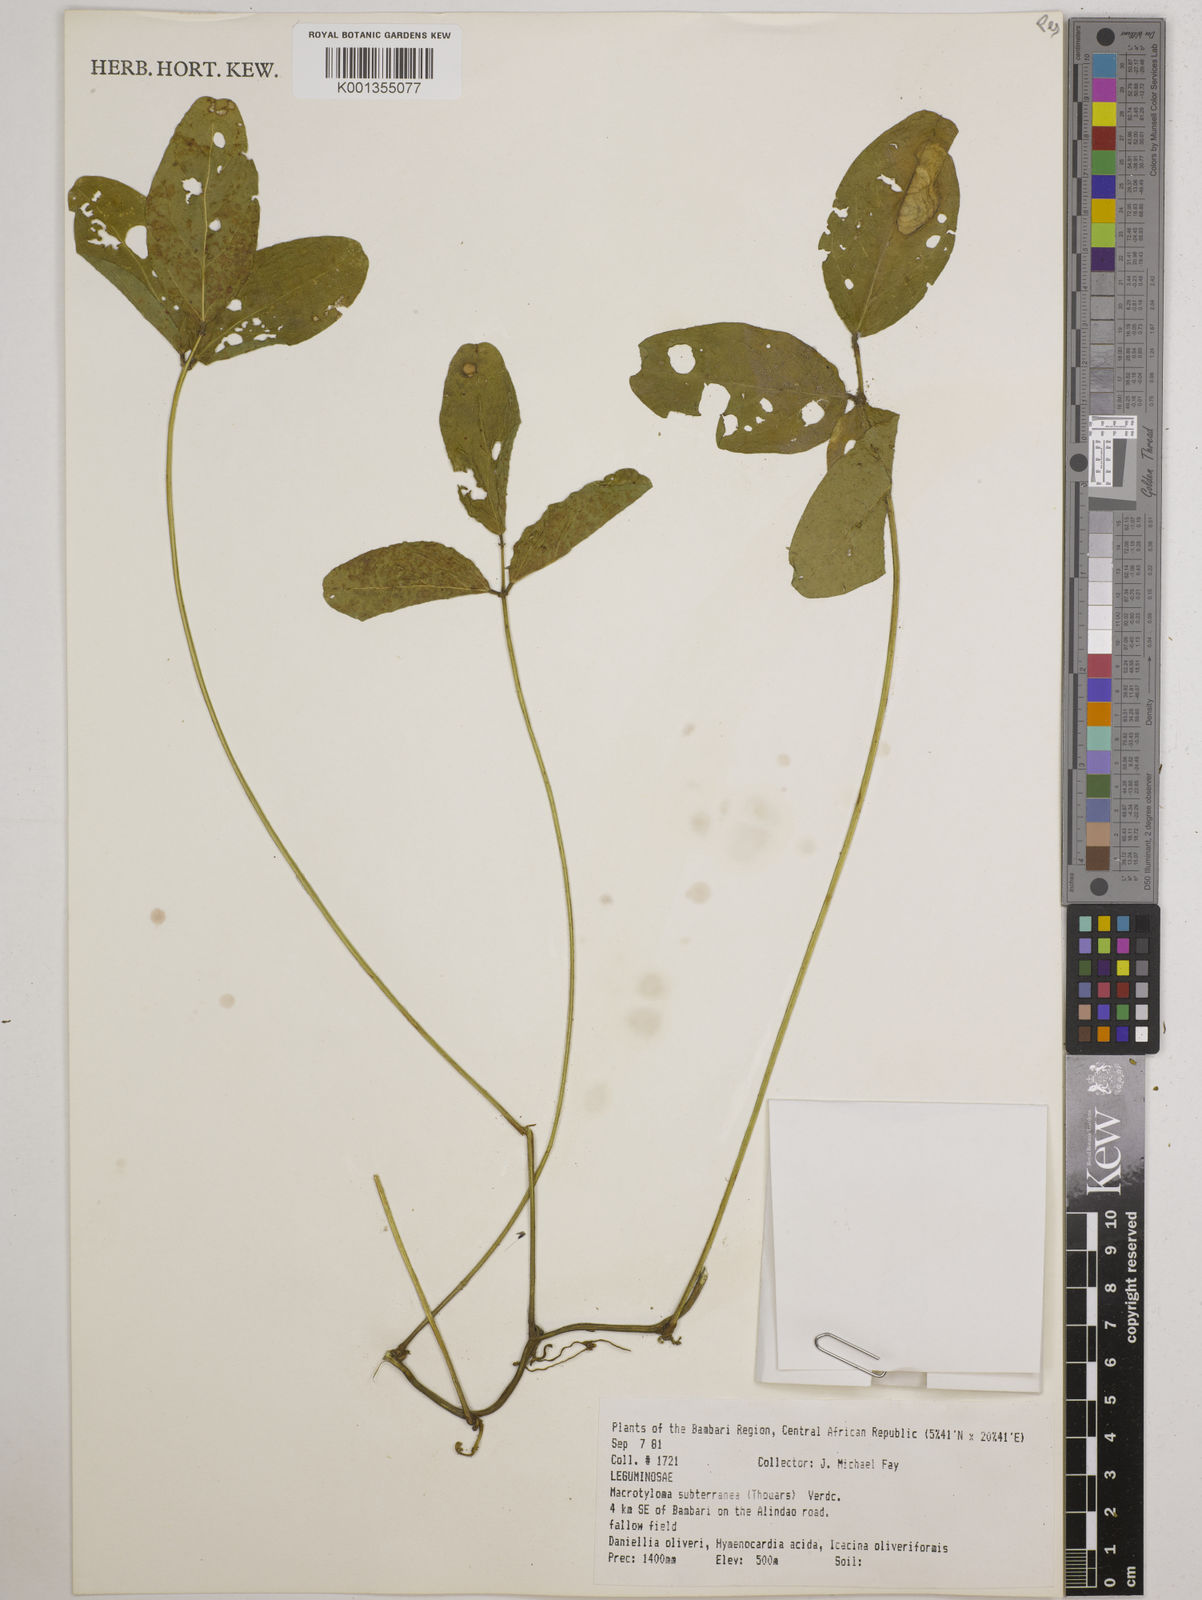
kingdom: Plantae
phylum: Tracheophyta
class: Magnoliopsida
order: Fabales
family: Fabaceae
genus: Macrotyloma
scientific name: Macrotyloma
